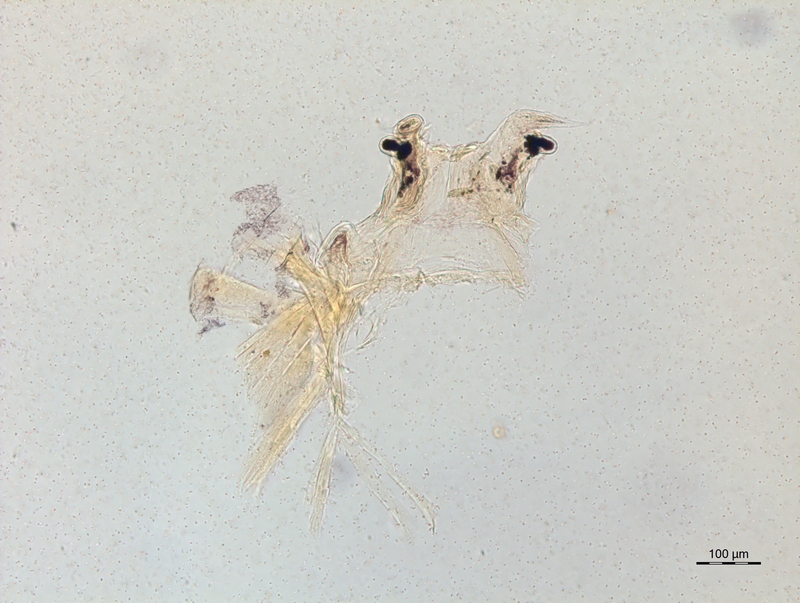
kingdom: Animalia
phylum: Arthropoda
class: Diplopoda
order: Chordeumatida
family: Craspedosomatidae
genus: Bomogona
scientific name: Bomogona lombardica
